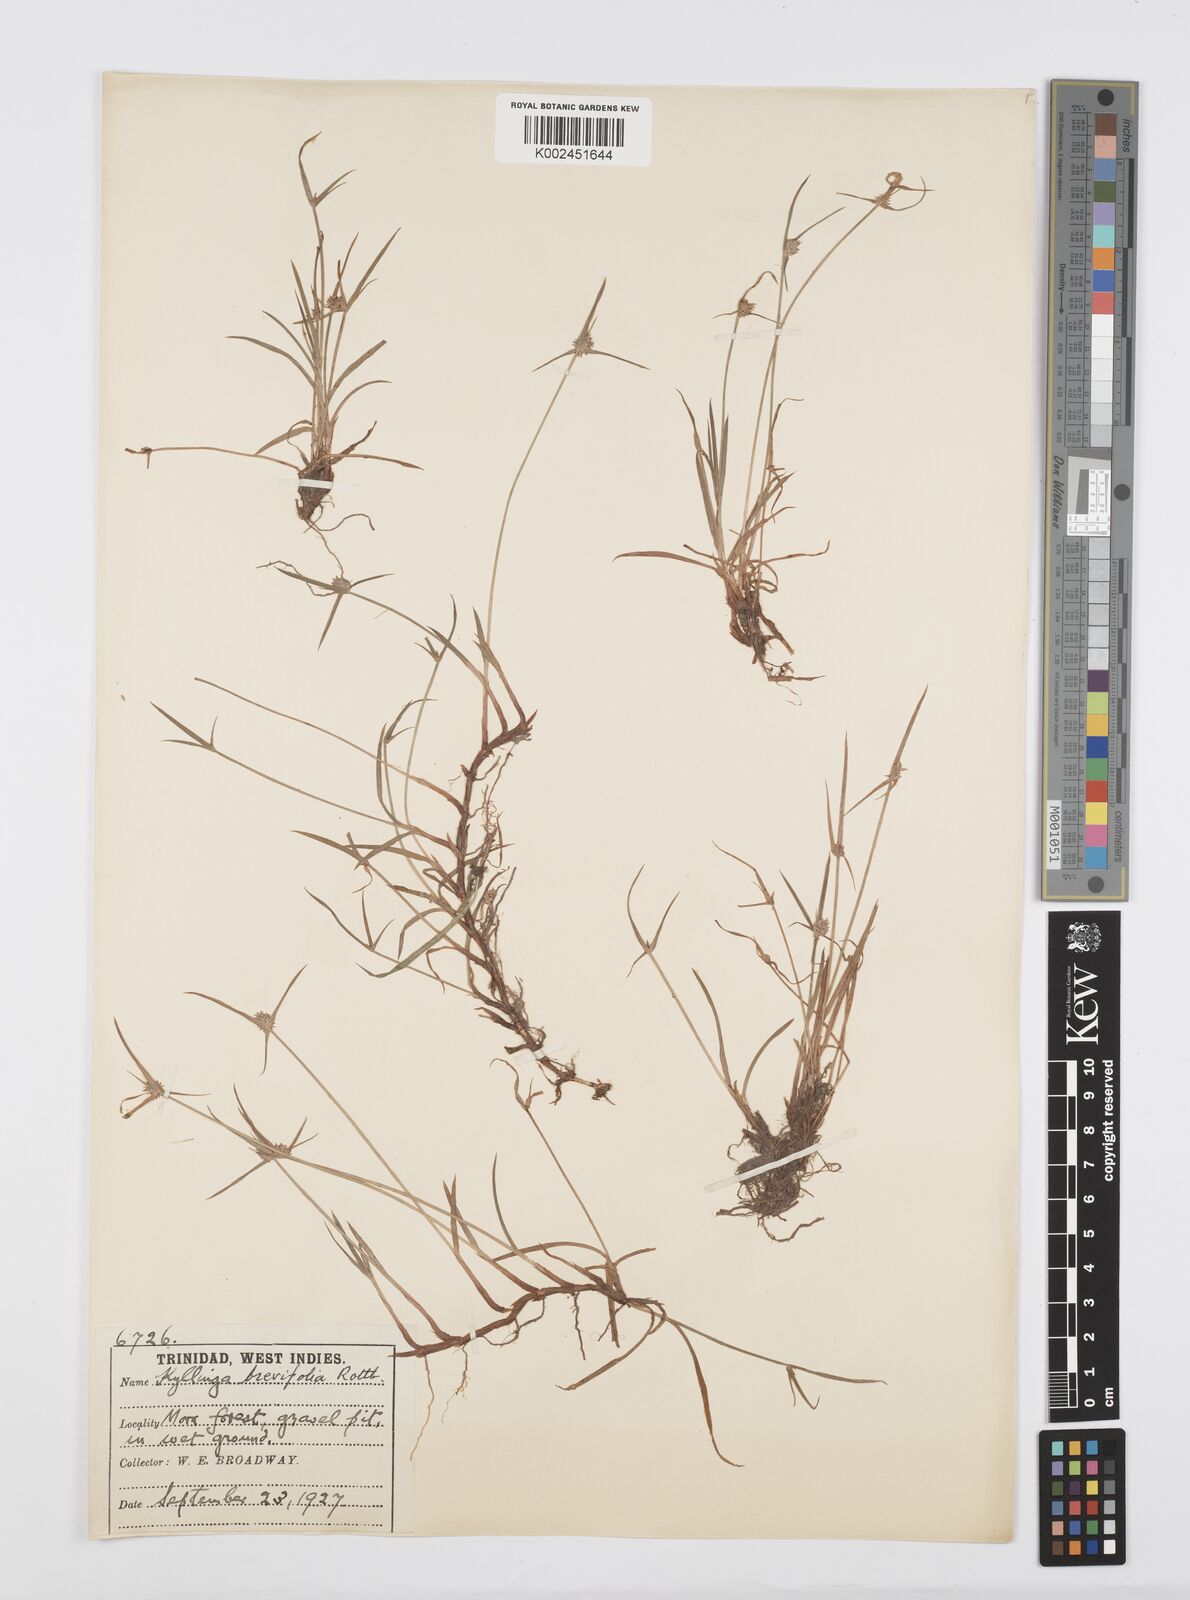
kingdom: Plantae
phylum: Tracheophyta
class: Liliopsida
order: Poales
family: Cyperaceae
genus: Cyperus
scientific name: Cyperus brevifolius
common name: Globe kyllinga
